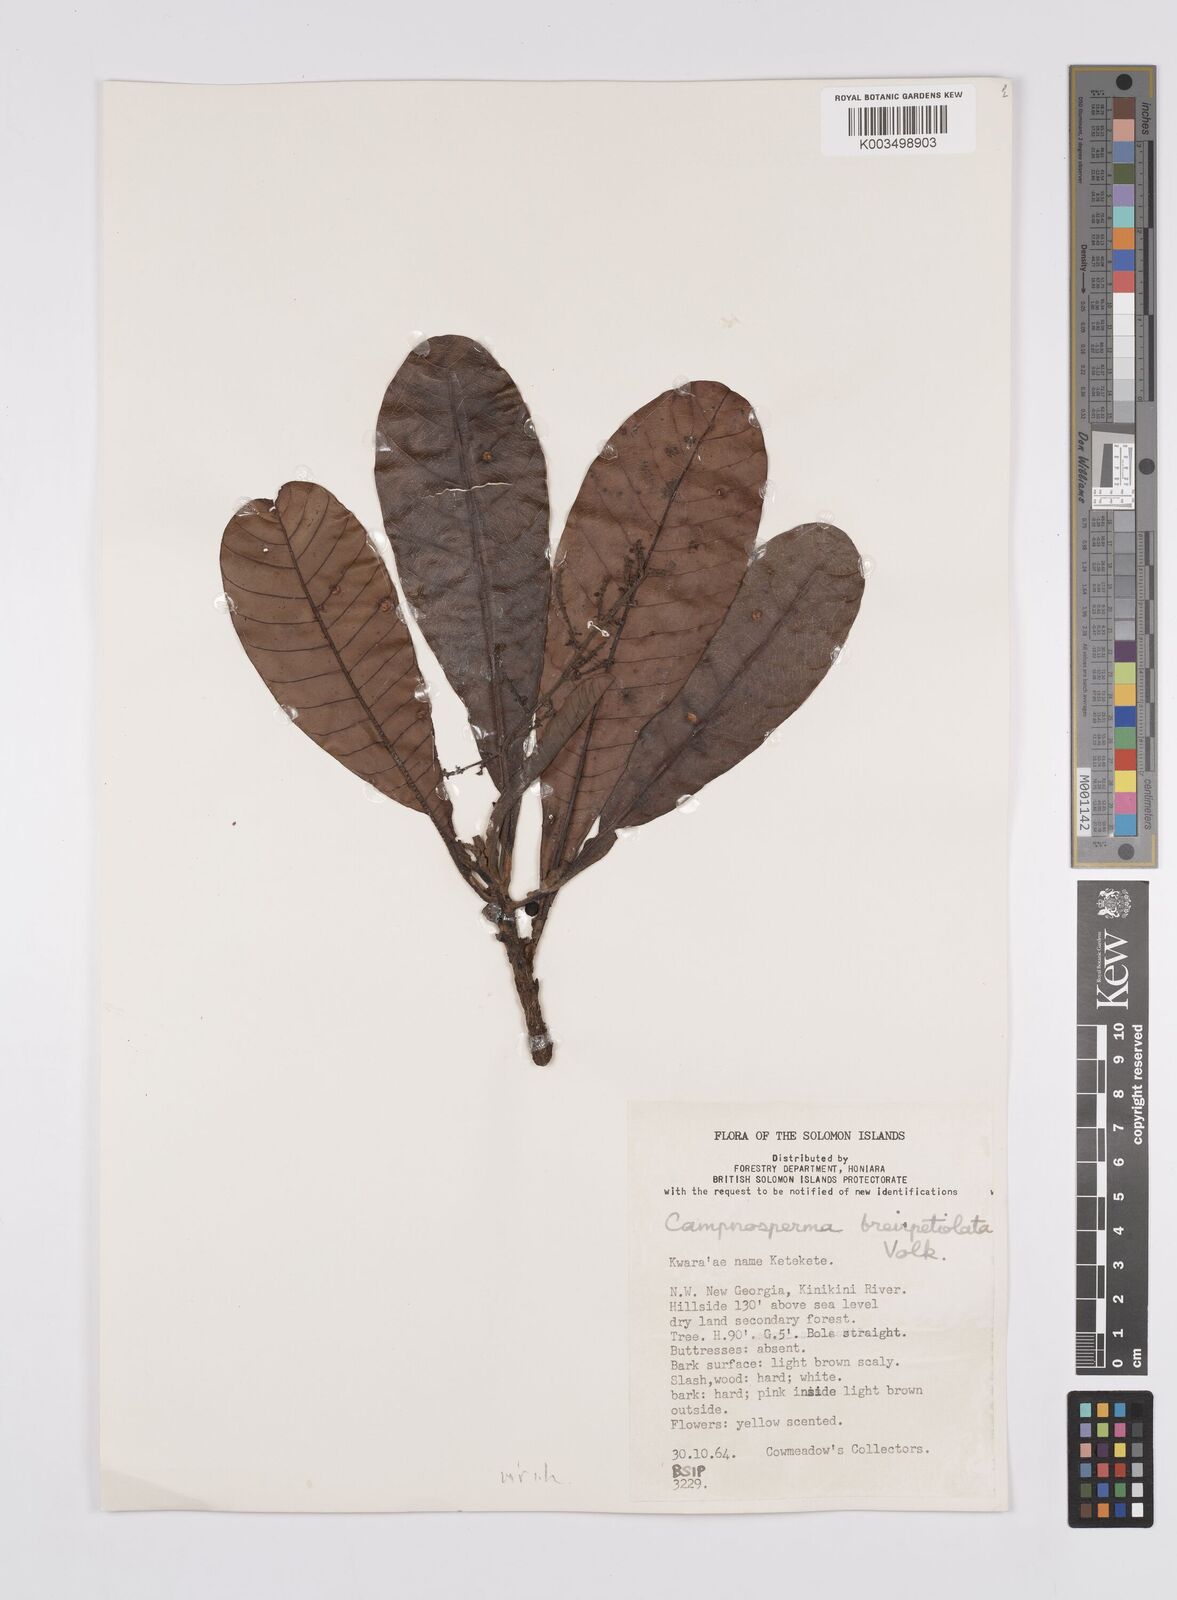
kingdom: Plantae
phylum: Tracheophyta
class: Magnoliopsida
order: Sapindales
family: Anacardiaceae
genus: Campnosperma
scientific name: Campnosperma brevipetiolatum
